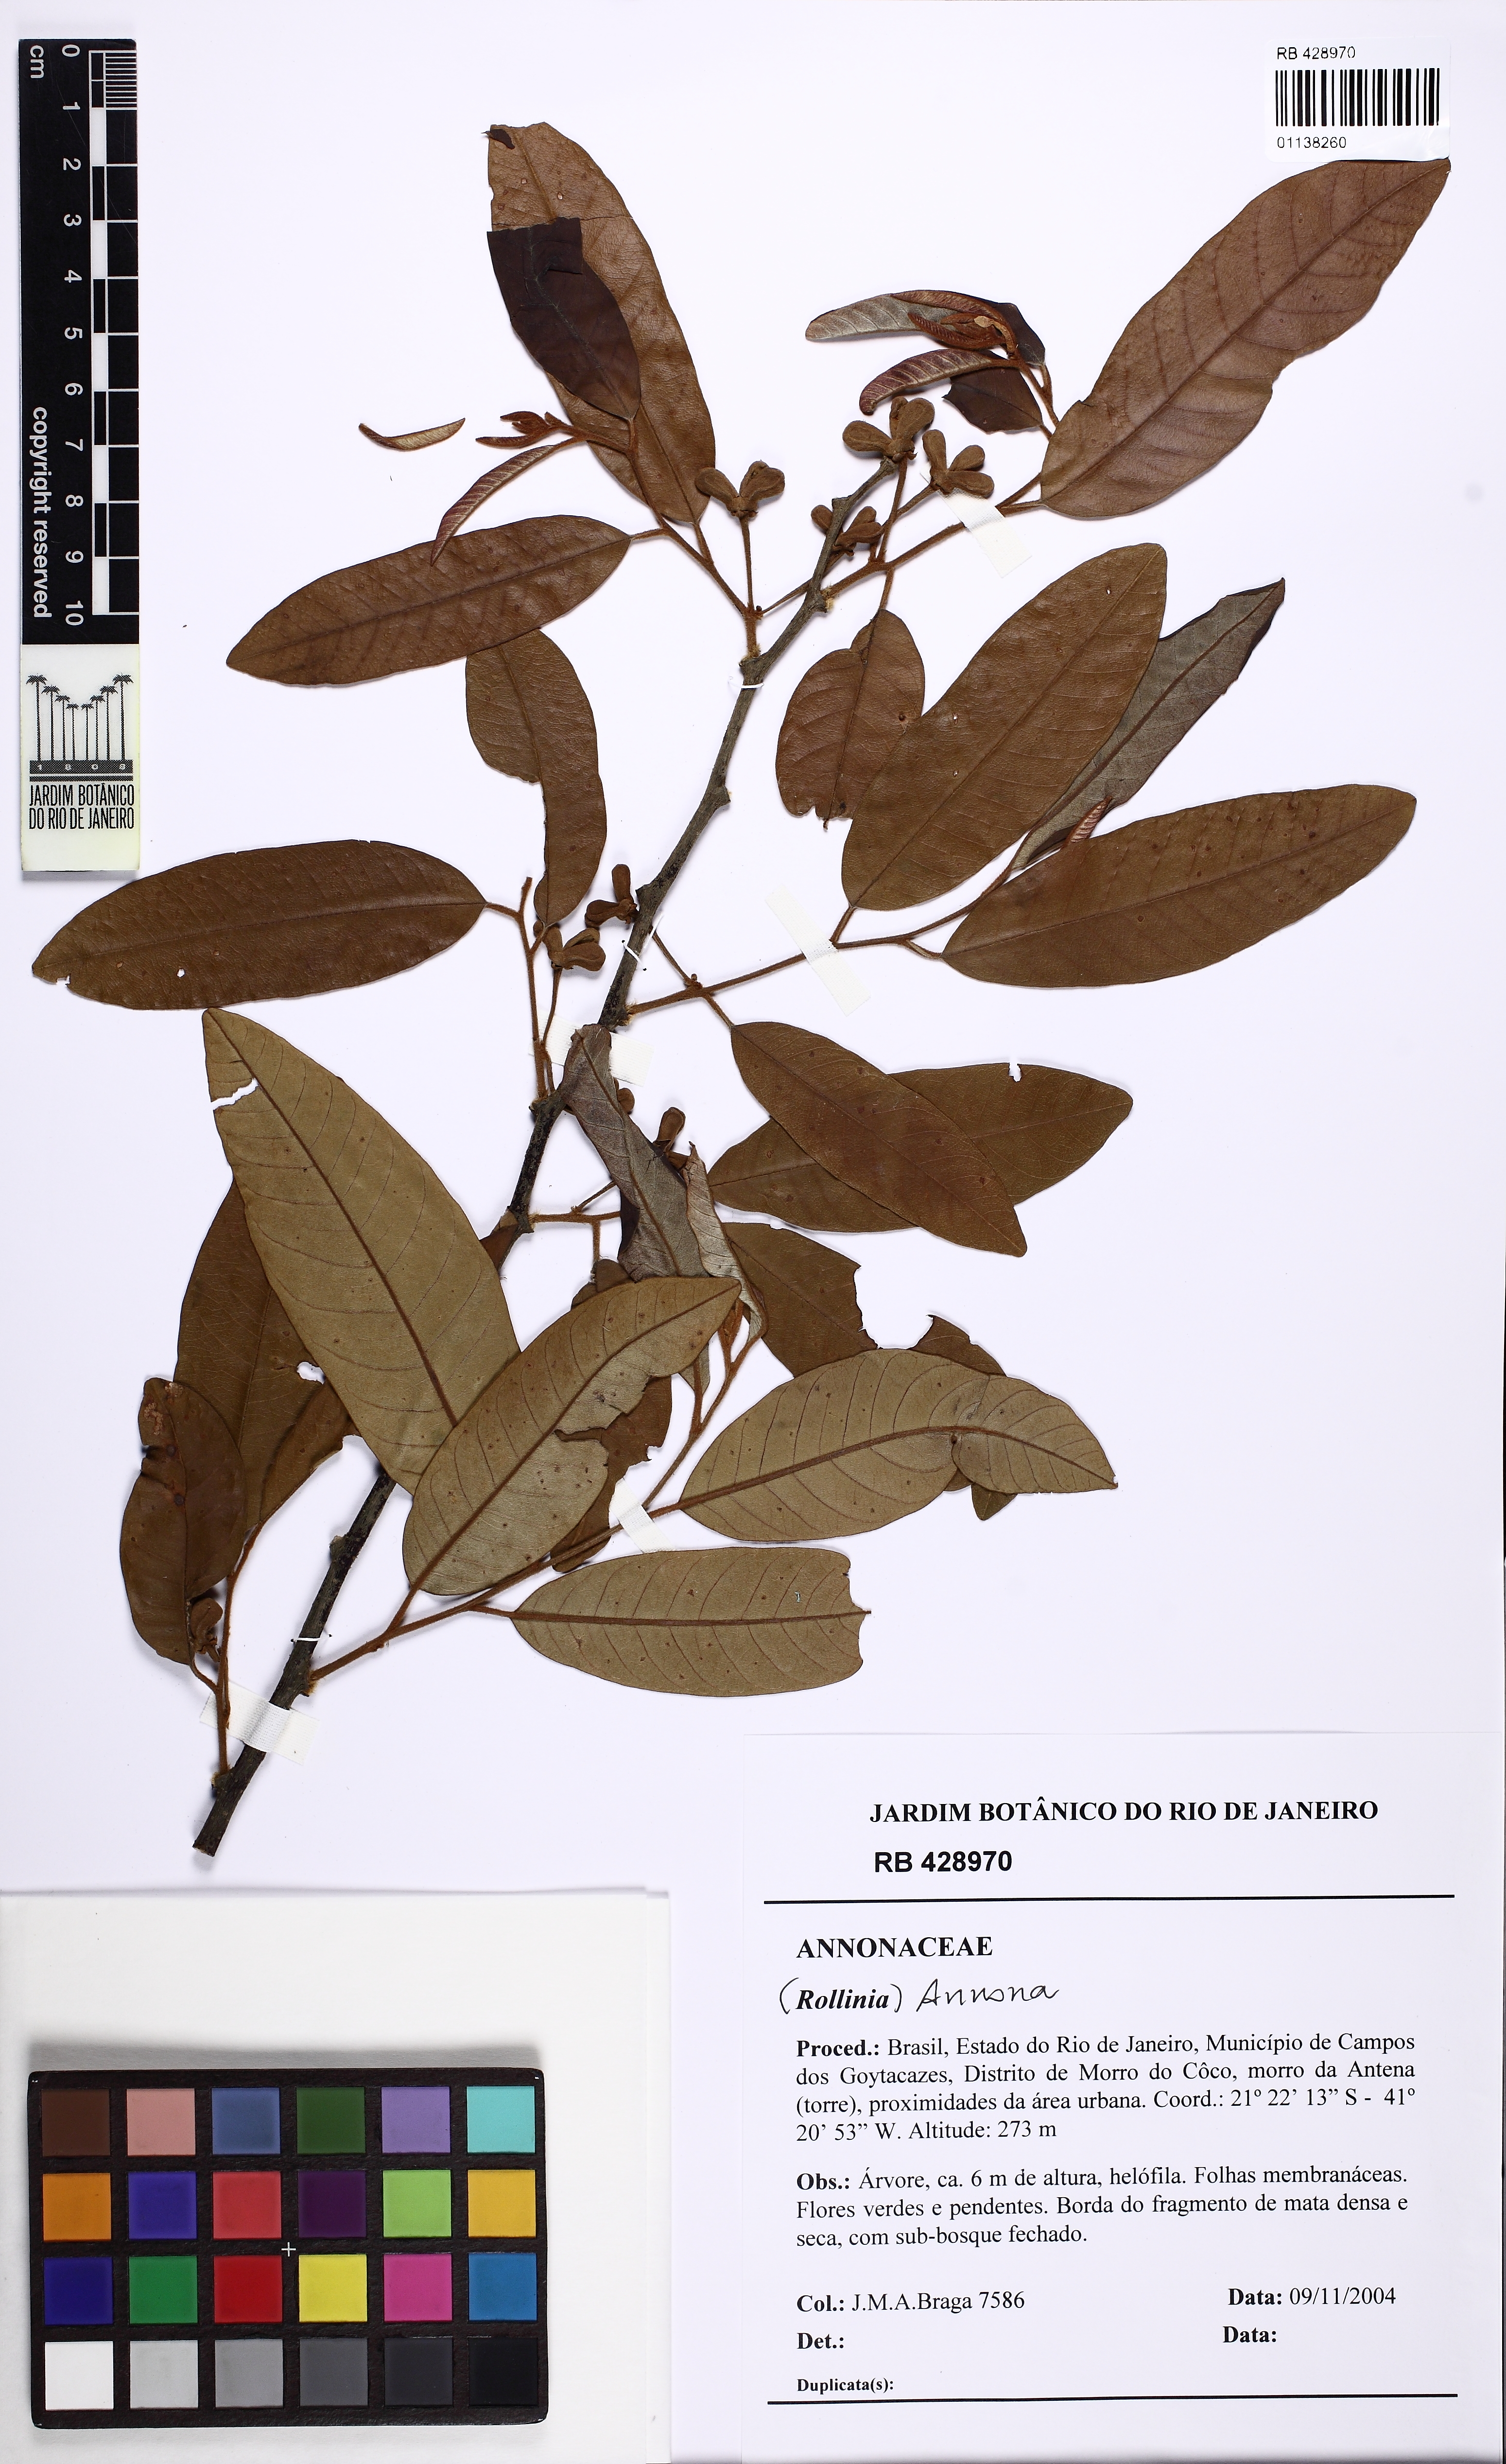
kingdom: Plantae
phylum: Tracheophyta
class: Magnoliopsida
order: Magnoliales
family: Annonaceae
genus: Annona
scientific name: Annona
